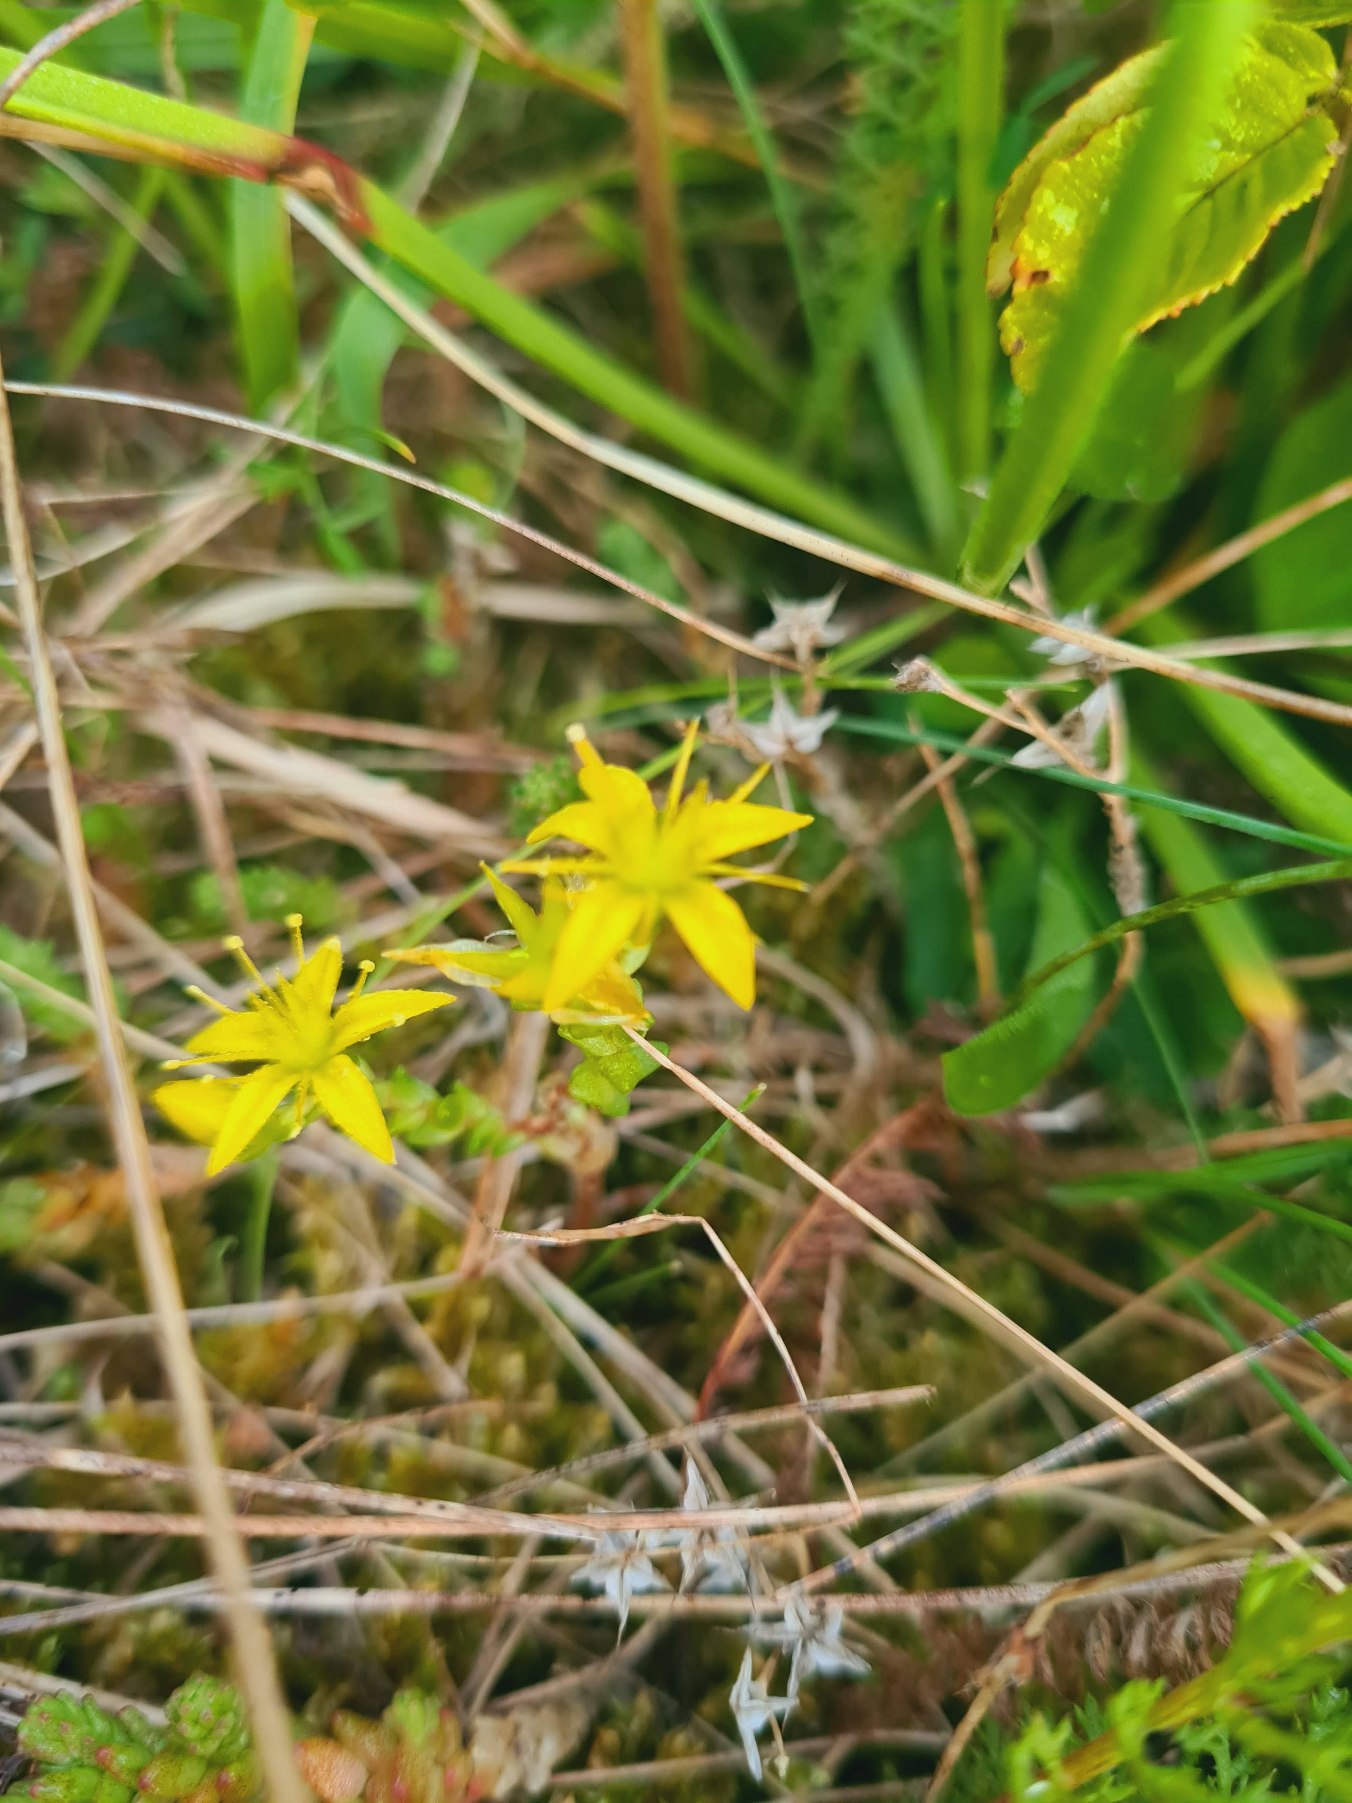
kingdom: Plantae
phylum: Tracheophyta
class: Magnoliopsida
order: Saxifragales
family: Crassulaceae
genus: Sedum
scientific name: Sedum acre
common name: Bidende stenurt
